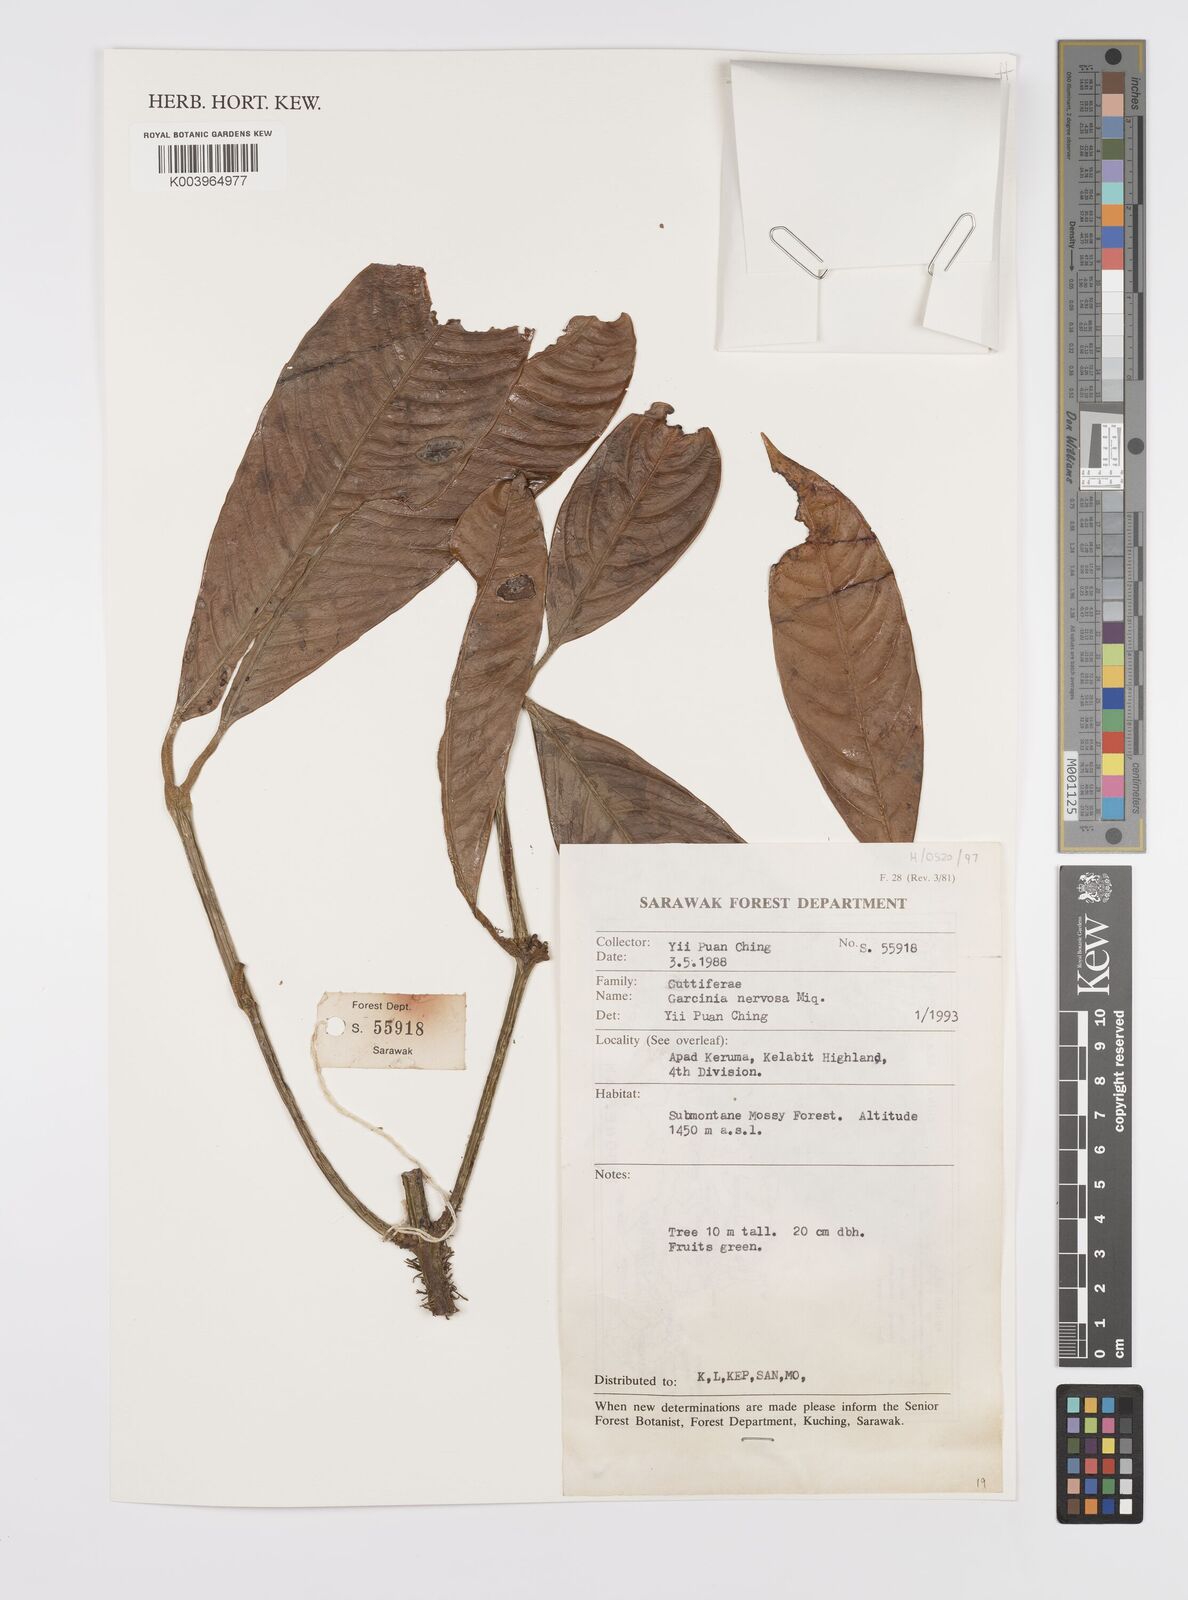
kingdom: Plantae
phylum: Tracheophyta
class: Magnoliopsida
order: Malpighiales
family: Clusiaceae
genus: Garcinia
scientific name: Garcinia nervosa
